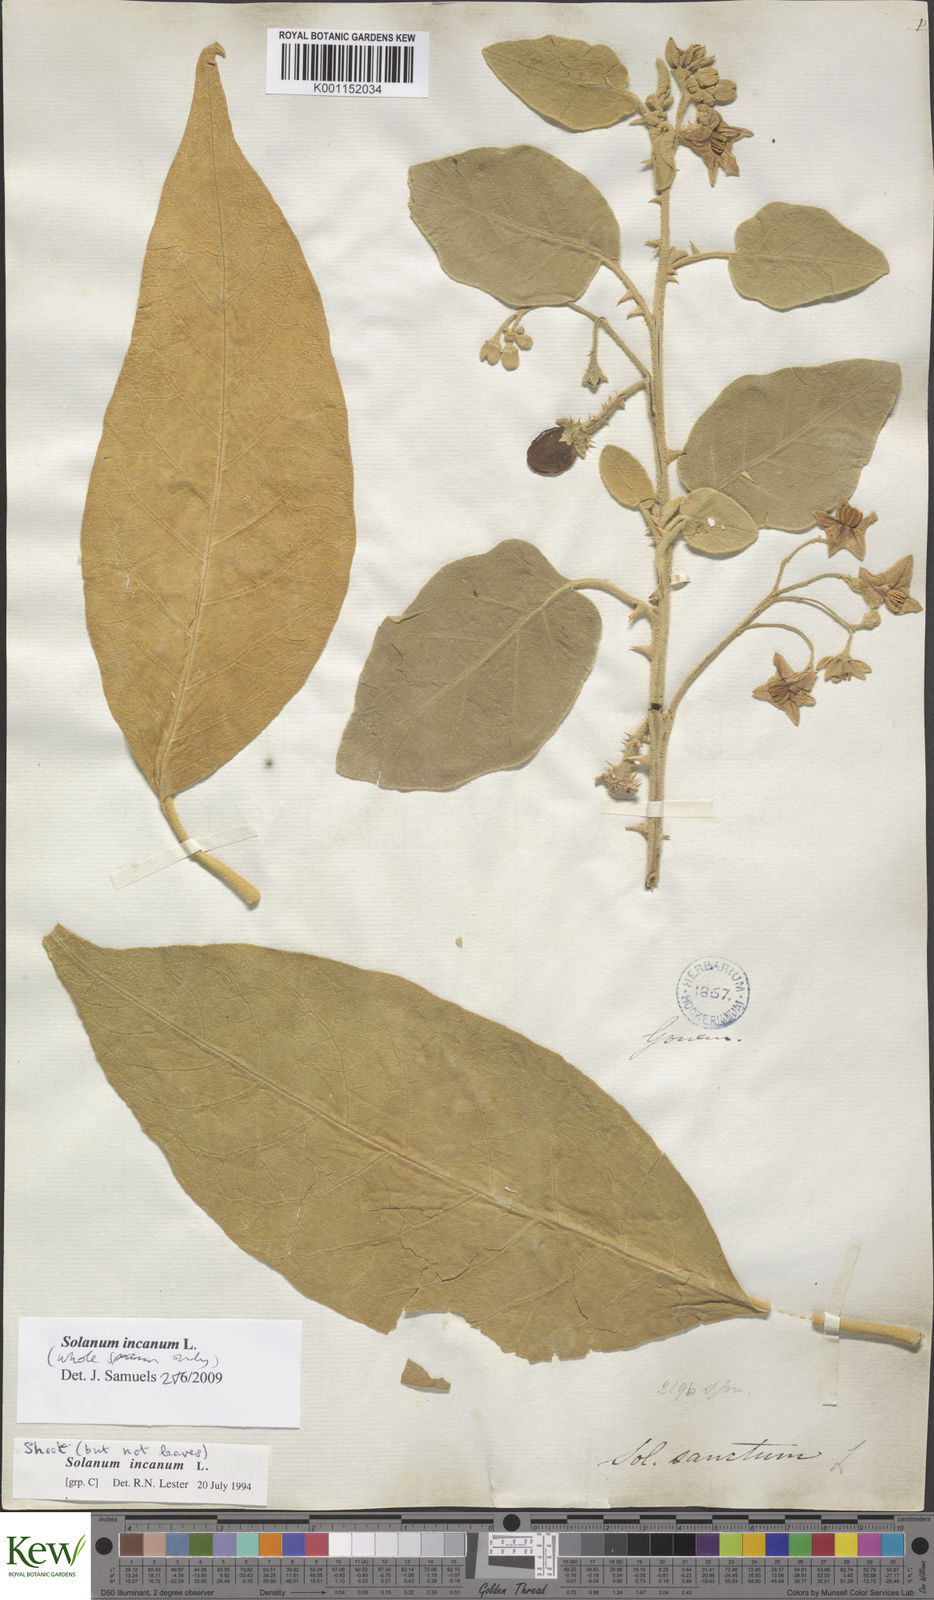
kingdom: Plantae
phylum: Tracheophyta
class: Magnoliopsida
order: Solanales
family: Solanaceae
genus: Solanum
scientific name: Solanum incanum
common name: Bitter apple
